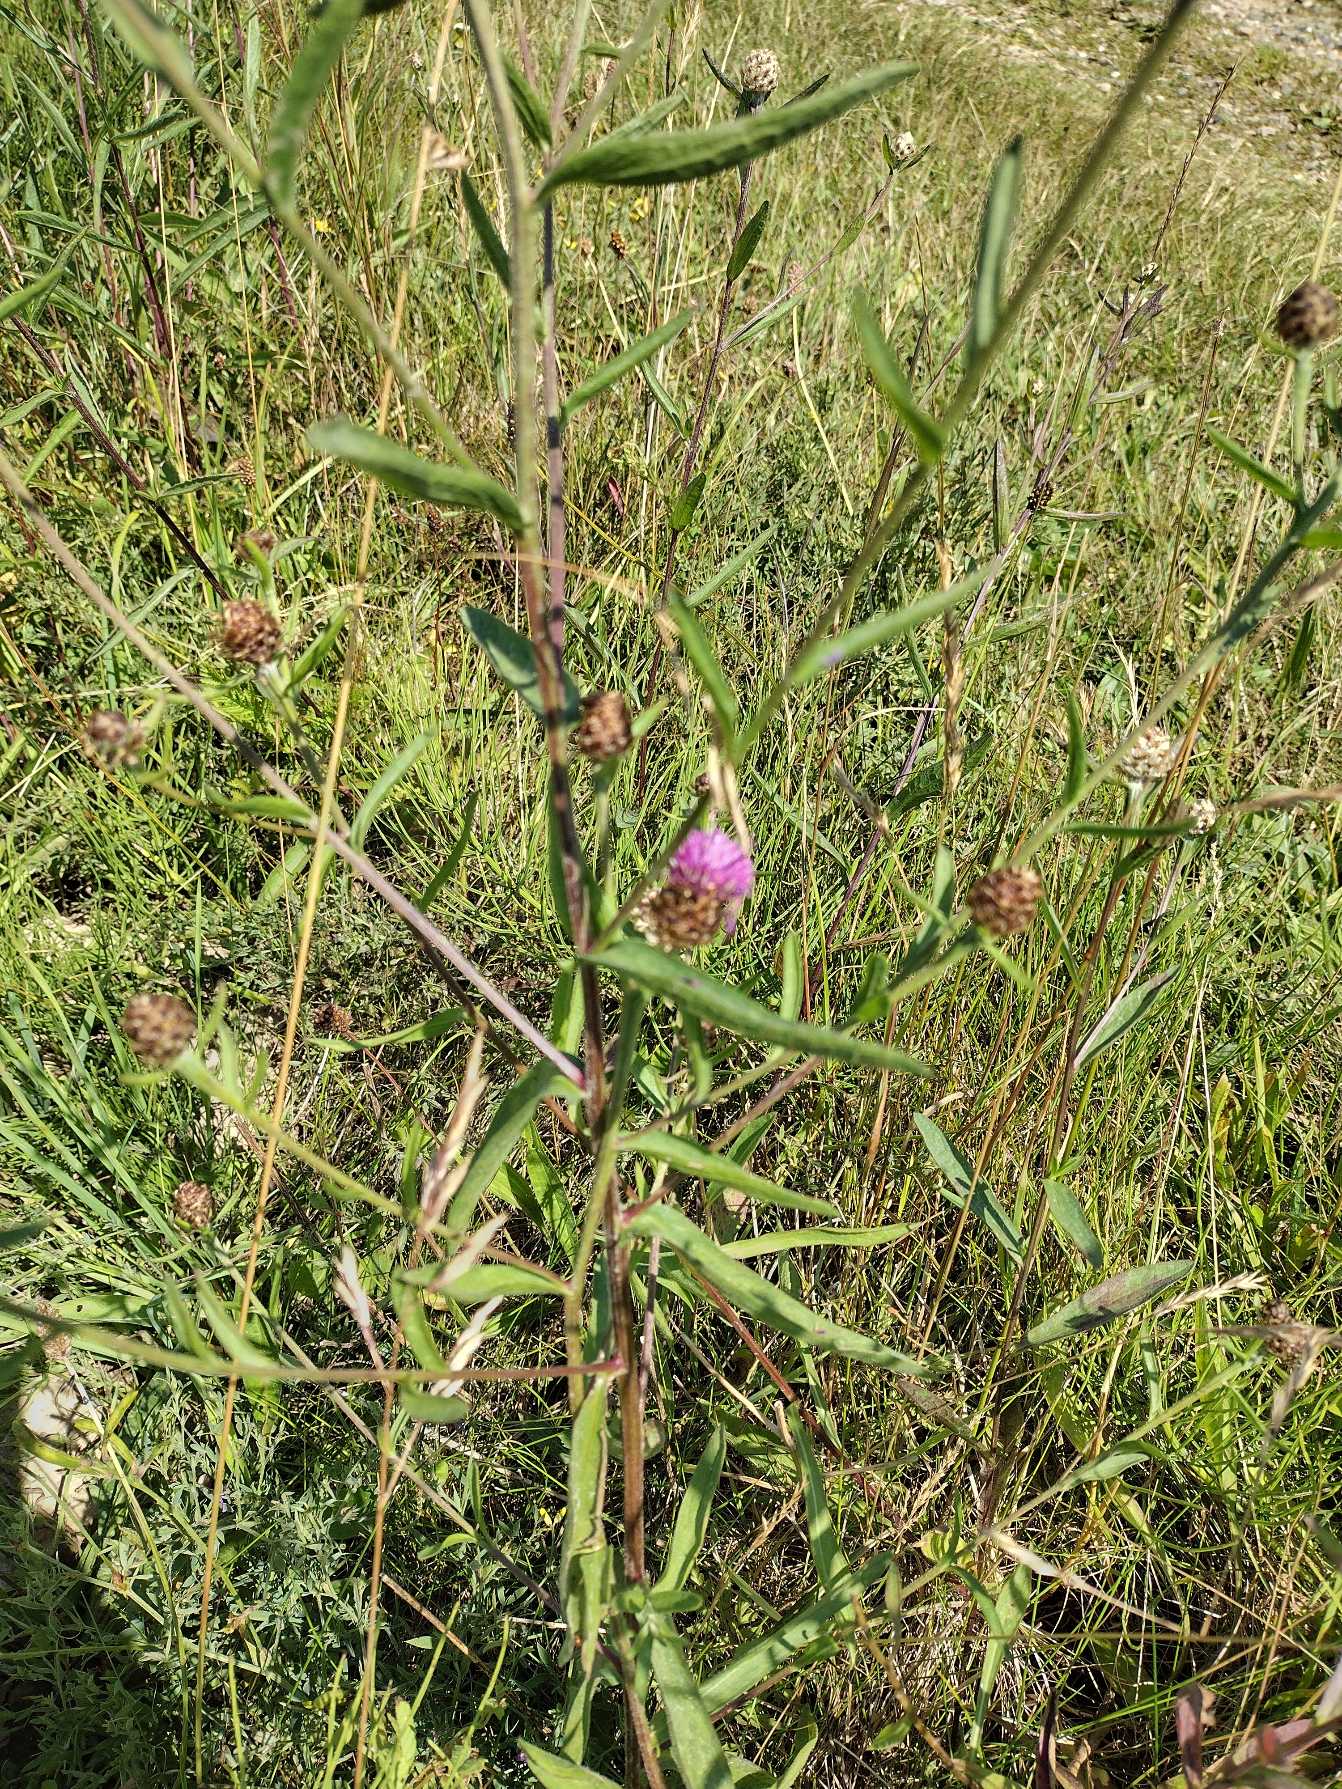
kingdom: Plantae
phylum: Tracheophyta
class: Magnoliopsida
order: Asterales
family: Asteraceae
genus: Centaurea
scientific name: Centaurea jacea
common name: Almindelig knopurt
